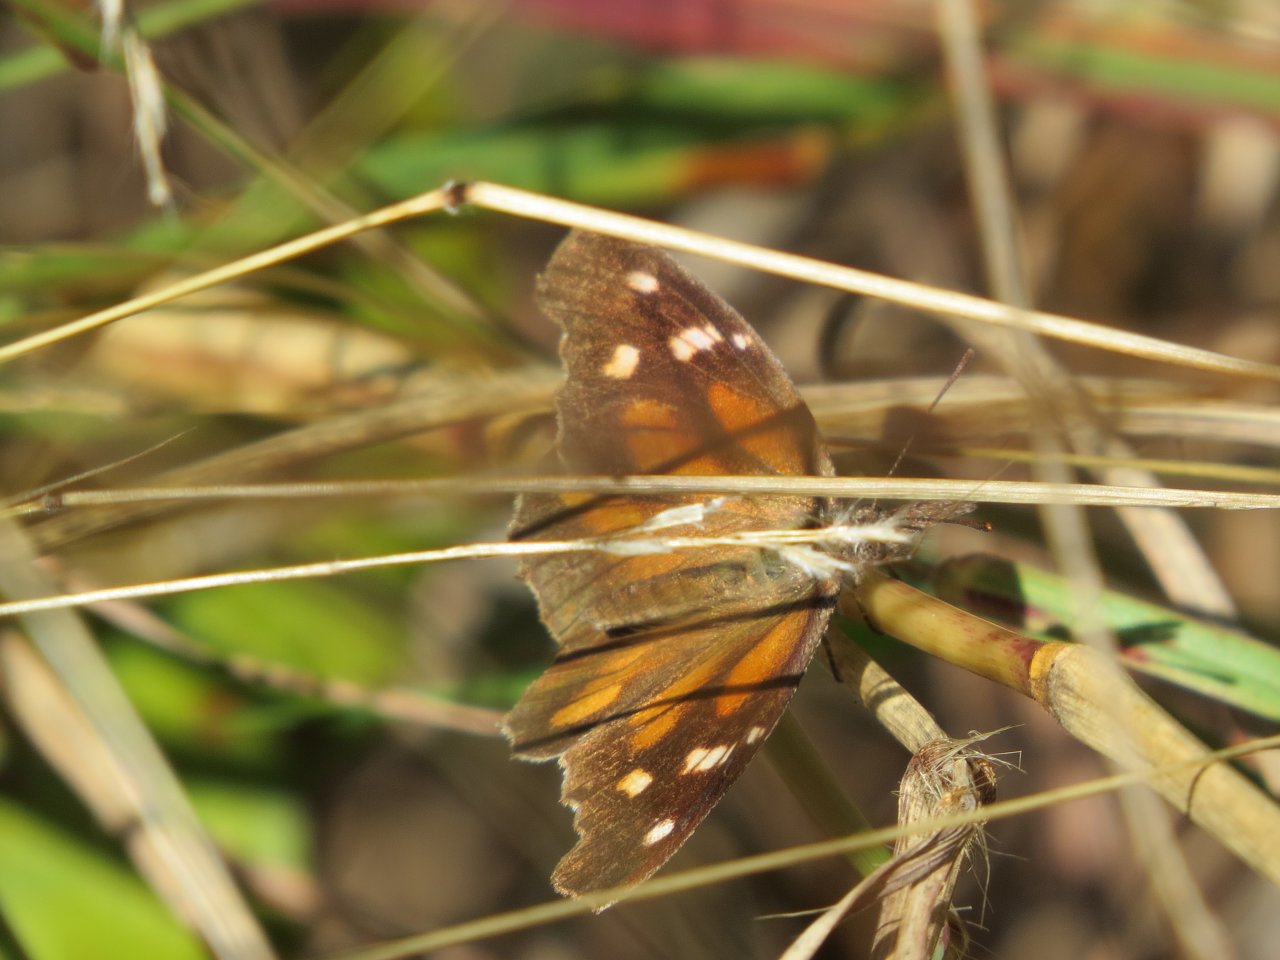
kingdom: Animalia
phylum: Arthropoda
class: Insecta
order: Lepidoptera
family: Nymphalidae
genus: Libytheana
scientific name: Libytheana carinenta
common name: American Snout
